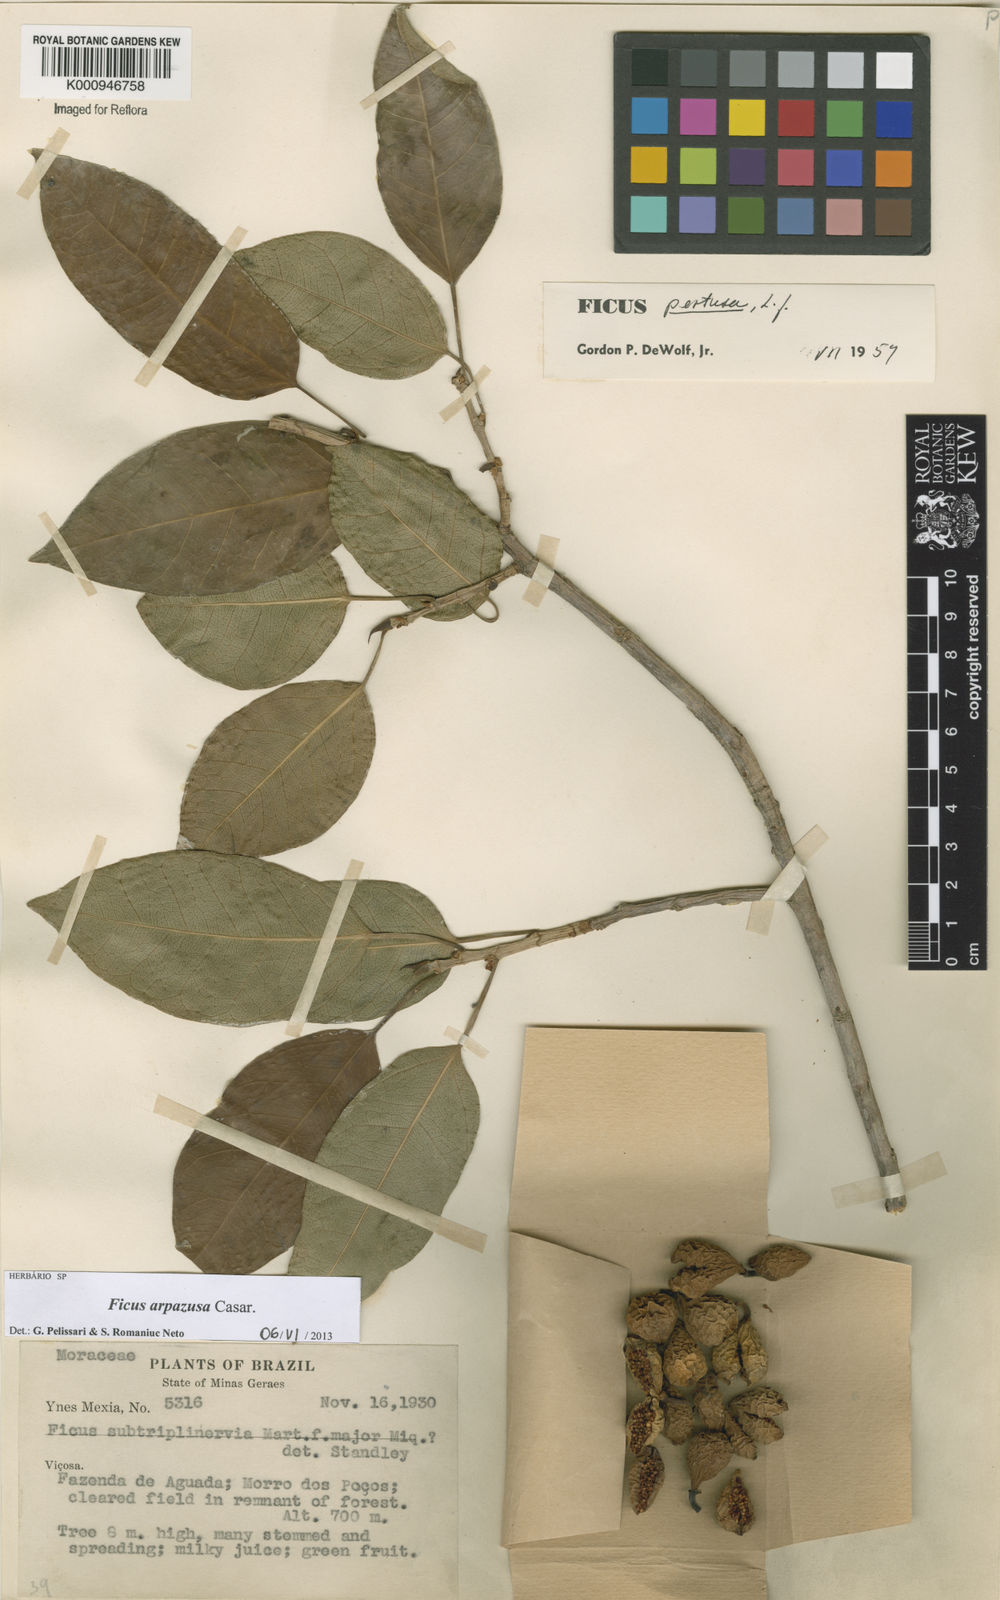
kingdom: Plantae
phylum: Tracheophyta
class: Magnoliopsida
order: Rosales
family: Moraceae
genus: Ficus
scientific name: Ficus arpazusa
